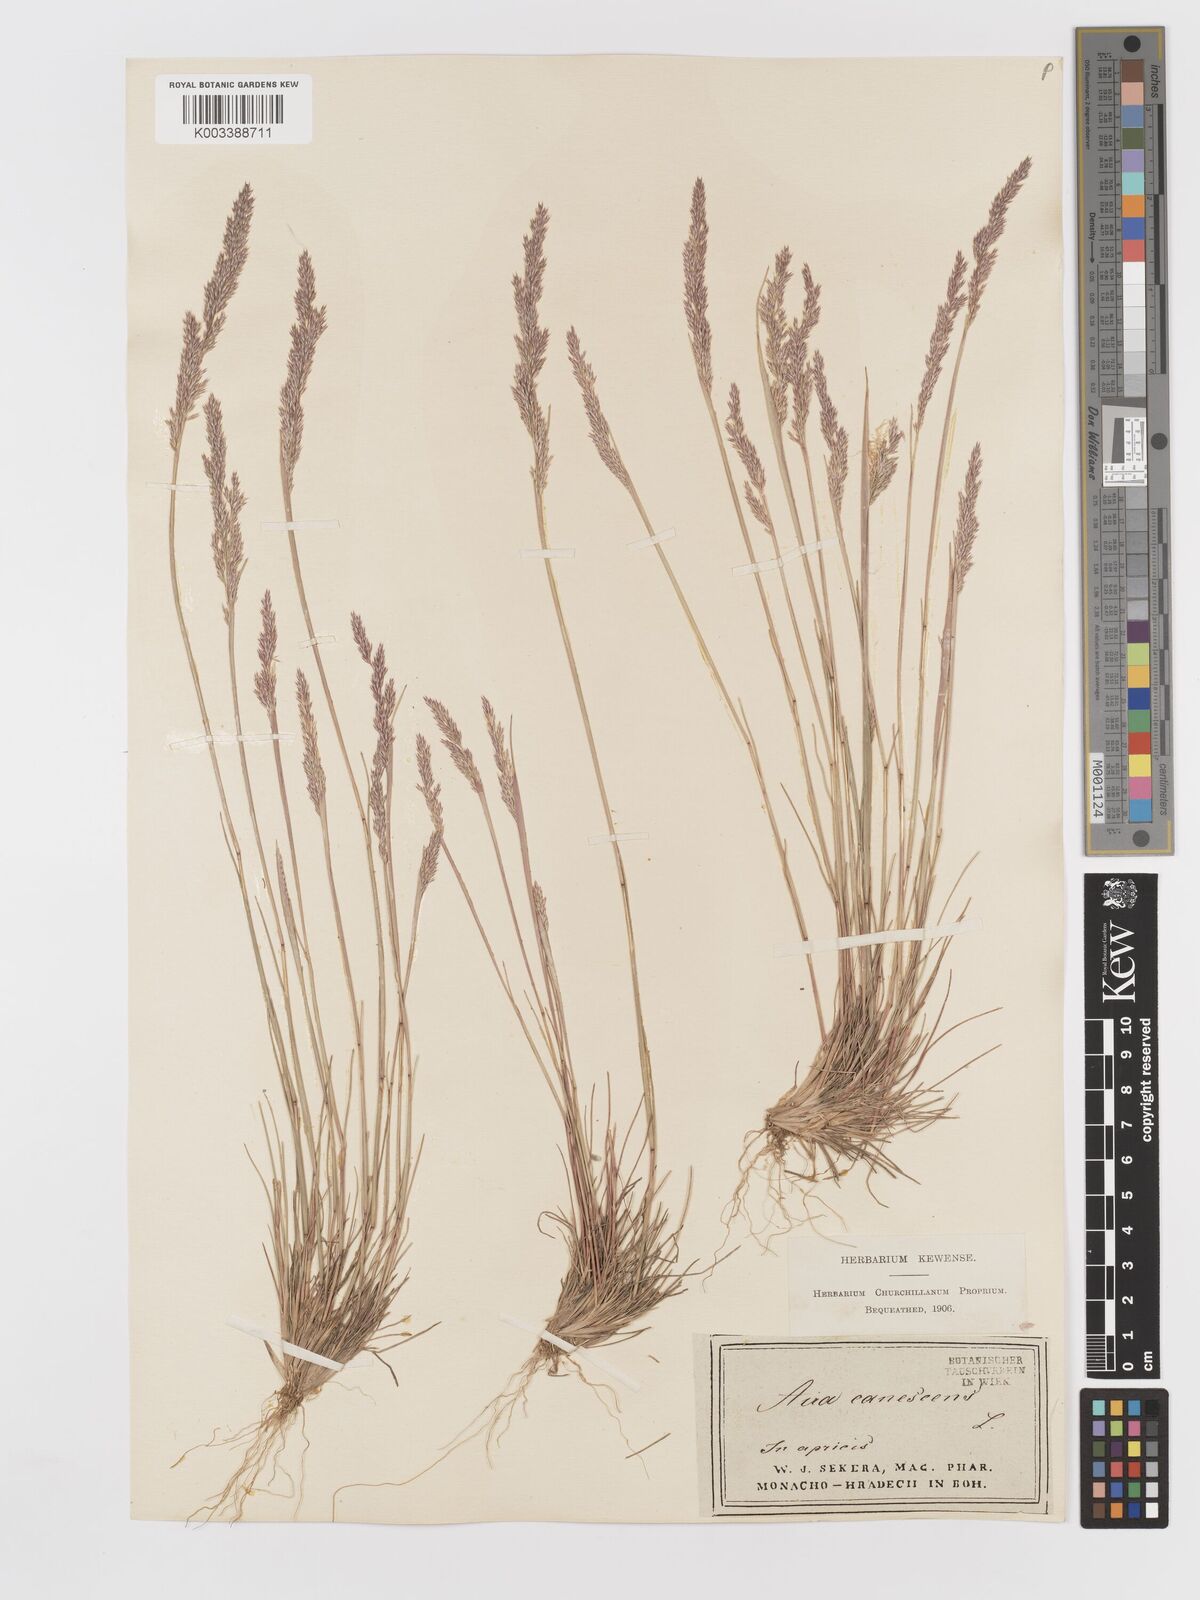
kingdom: Plantae
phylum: Tracheophyta
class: Liliopsida
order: Poales
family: Poaceae
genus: Corynephorus
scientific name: Corynephorus canescens
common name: Grey hair-grass
